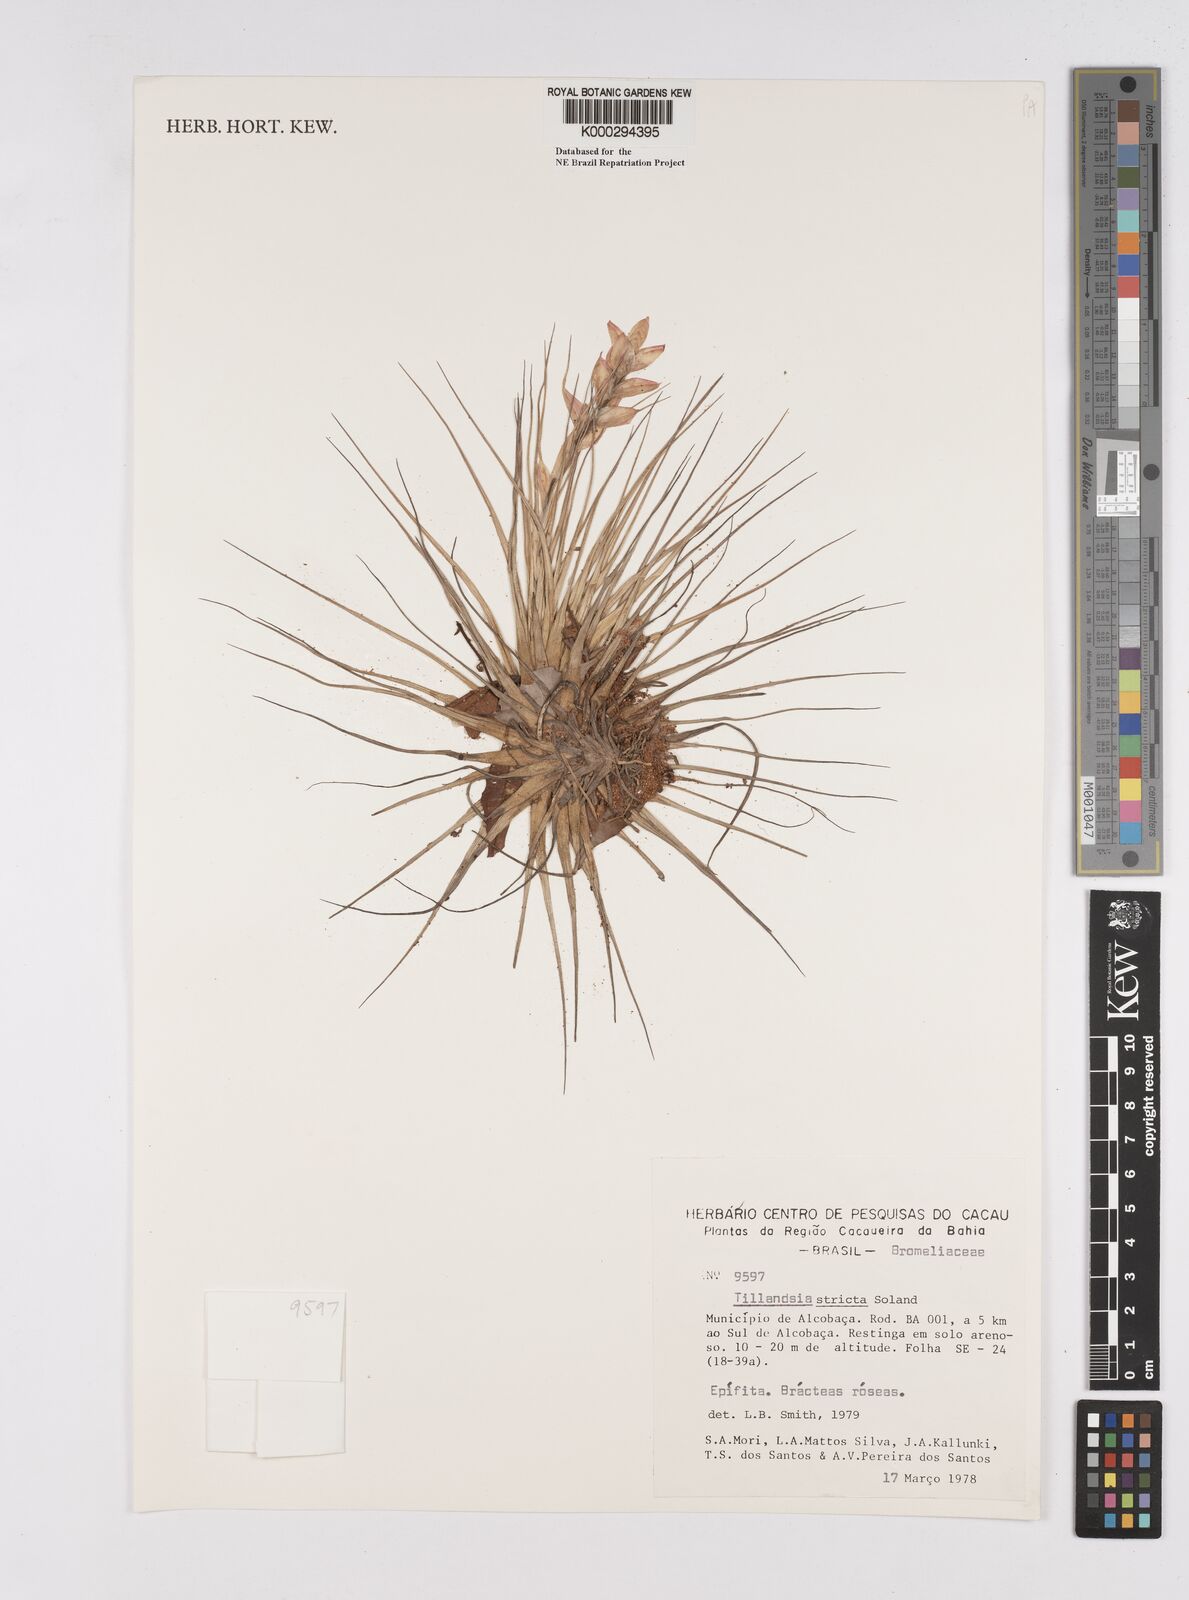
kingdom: Plantae
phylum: Tracheophyta
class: Liliopsida
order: Poales
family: Bromeliaceae
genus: Tillandsia
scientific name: Tillandsia
